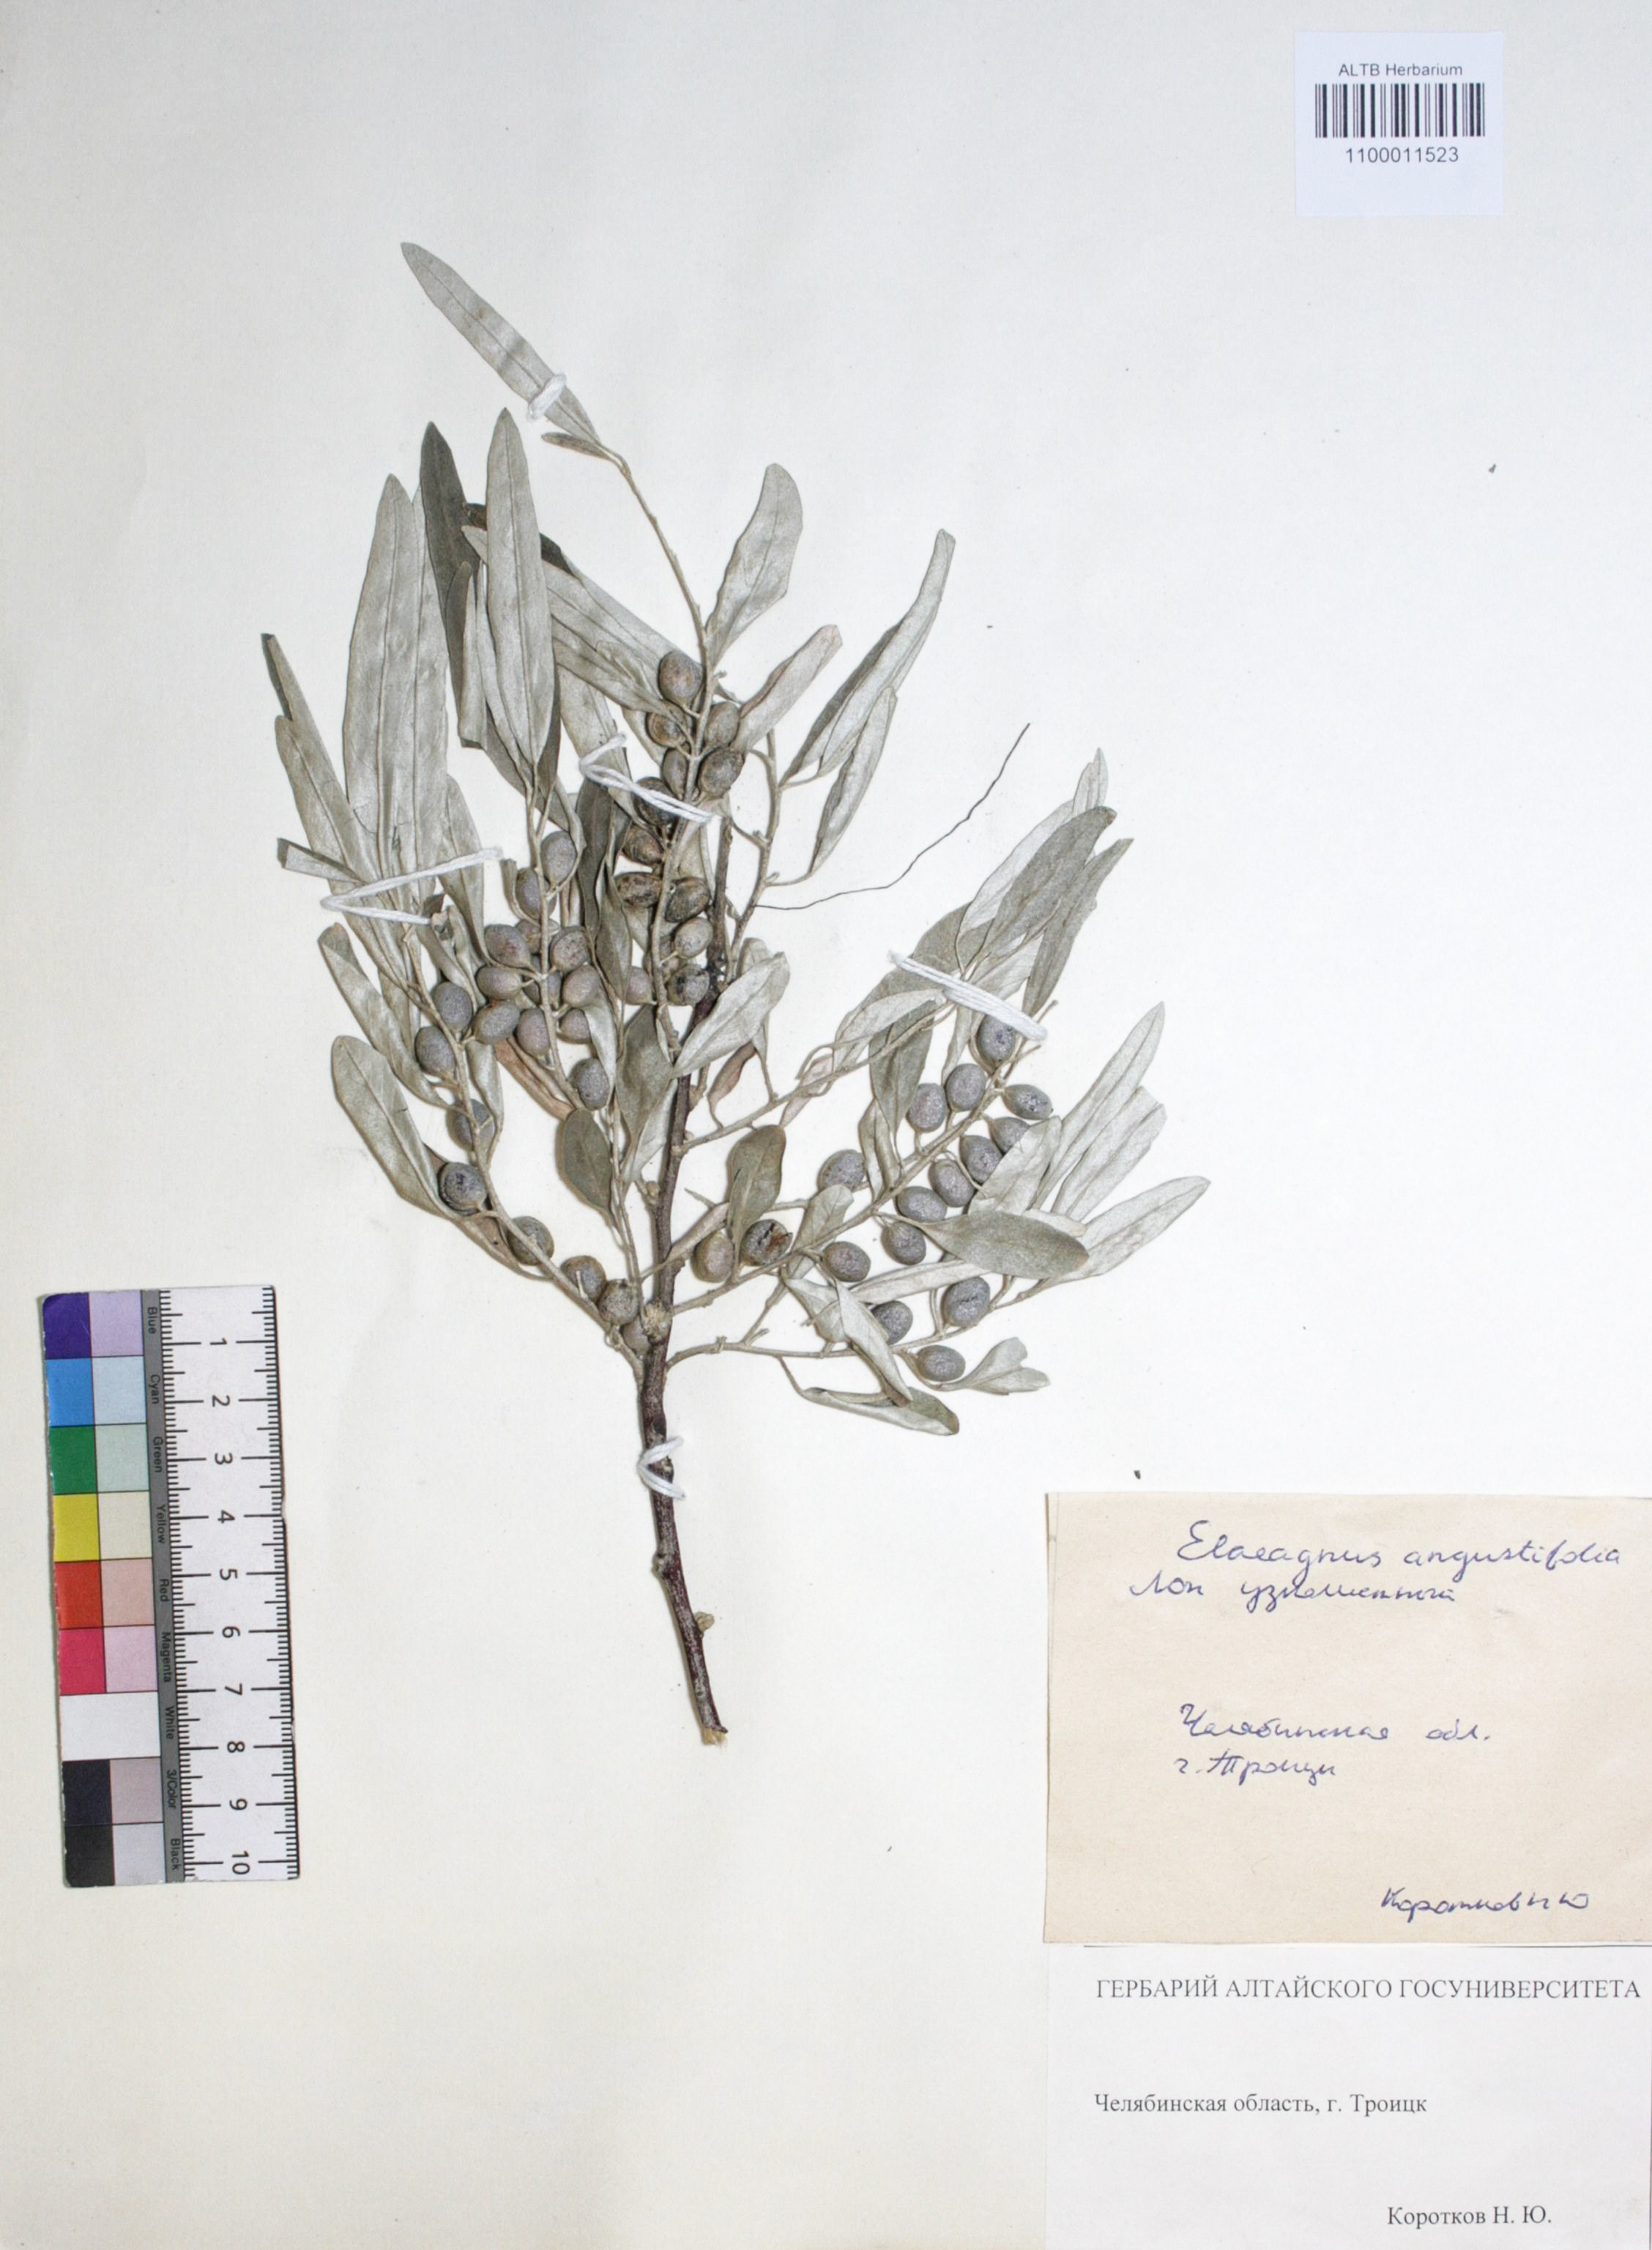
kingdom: Plantae
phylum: Tracheophyta
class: Magnoliopsida
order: Rosales
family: Elaeagnaceae
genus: Elaeagnus
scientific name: Elaeagnus angustifolia
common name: Russian olive
